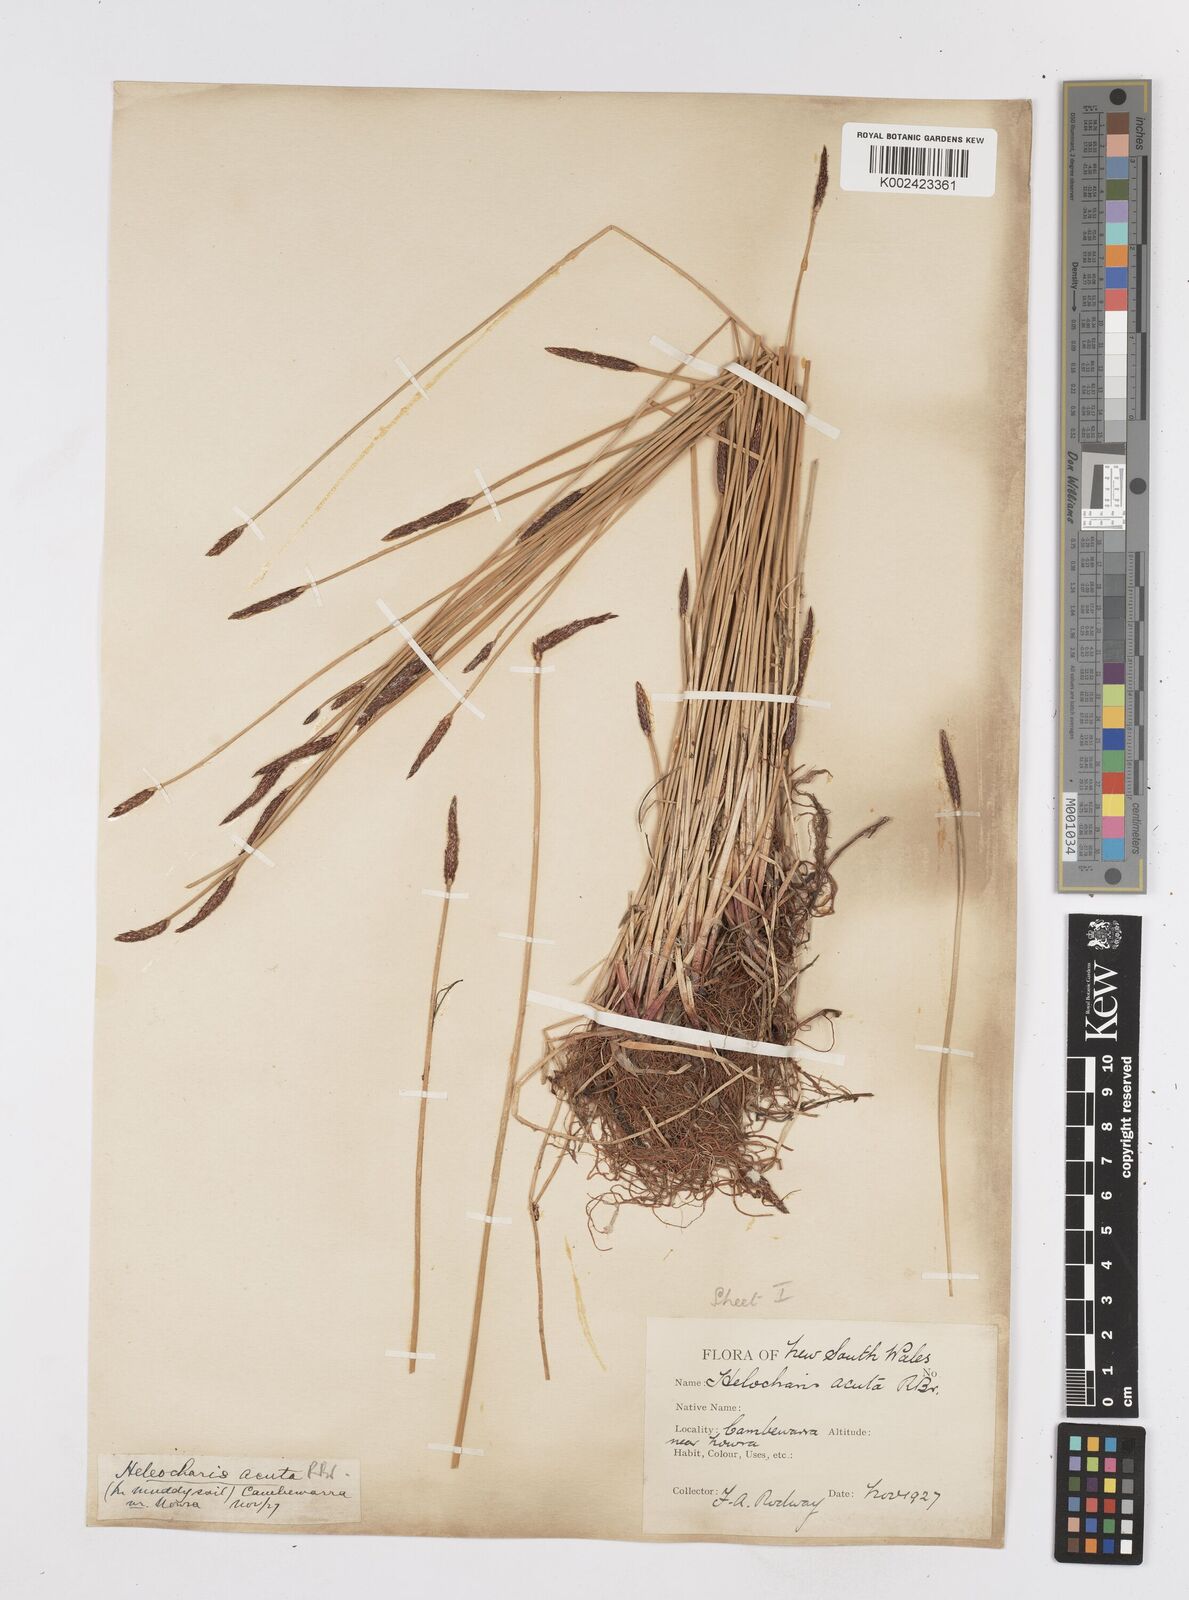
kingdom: Plantae
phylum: Tracheophyta
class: Liliopsida
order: Poales
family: Cyperaceae
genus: Eleocharis
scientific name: Eleocharis acuta
